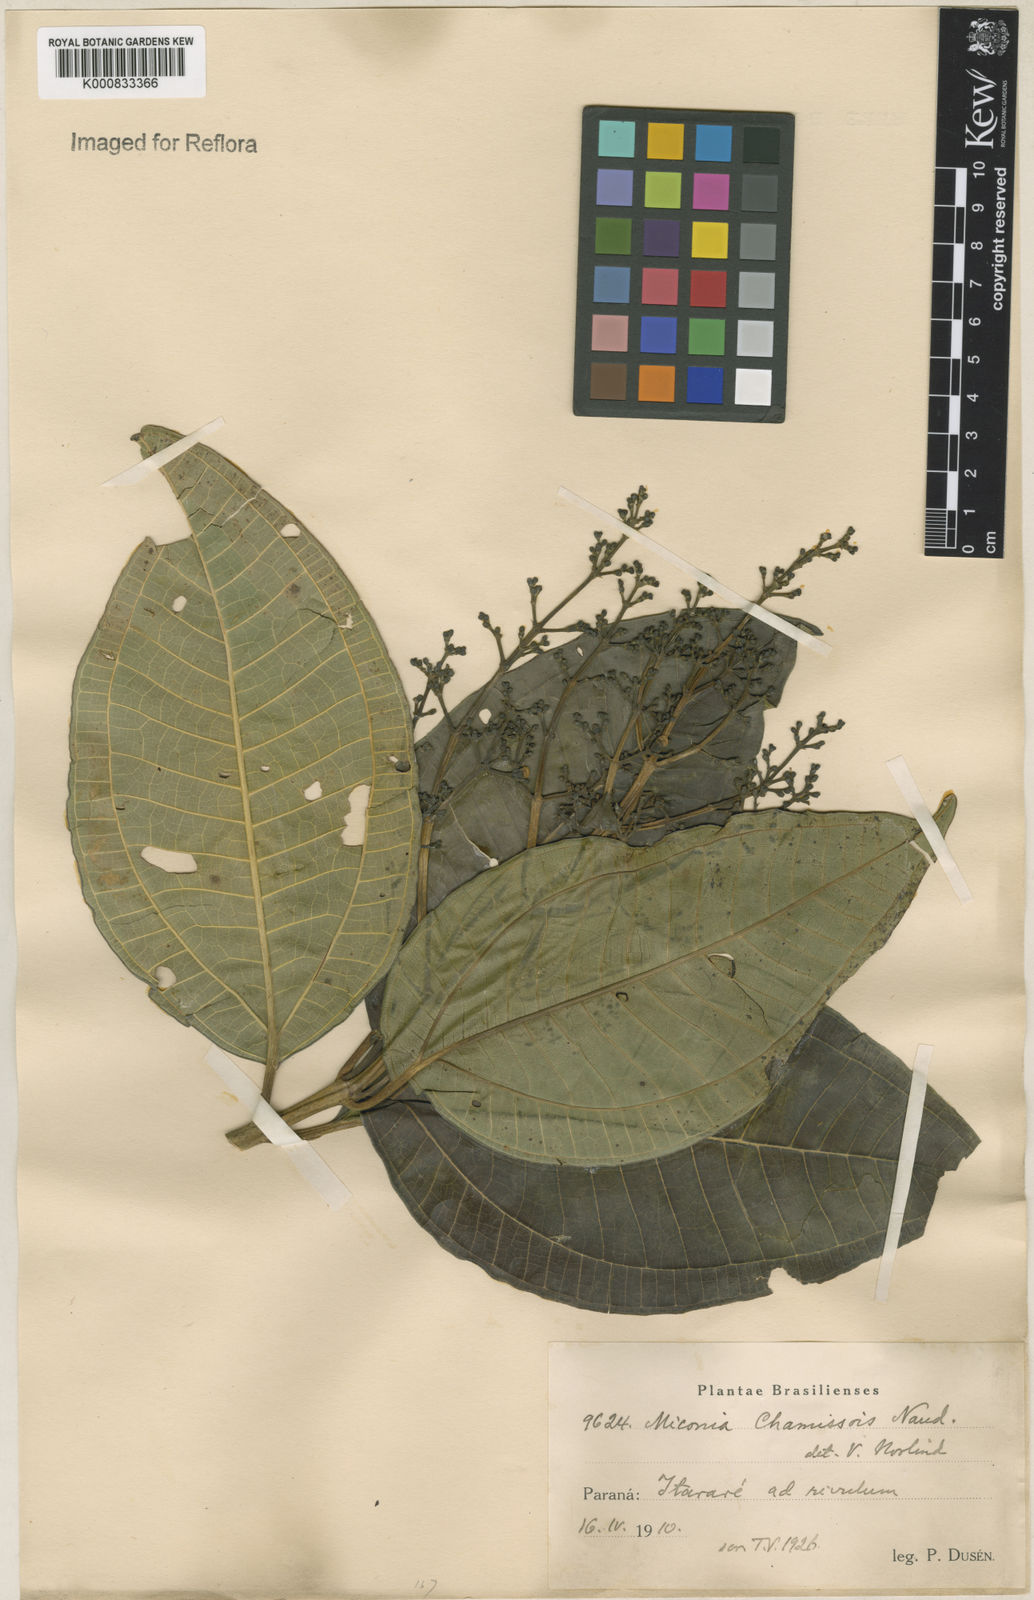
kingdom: Plantae
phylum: Tracheophyta
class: Magnoliopsida
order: Myrtales
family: Melastomataceae
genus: Miconia
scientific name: Miconia chamissois
